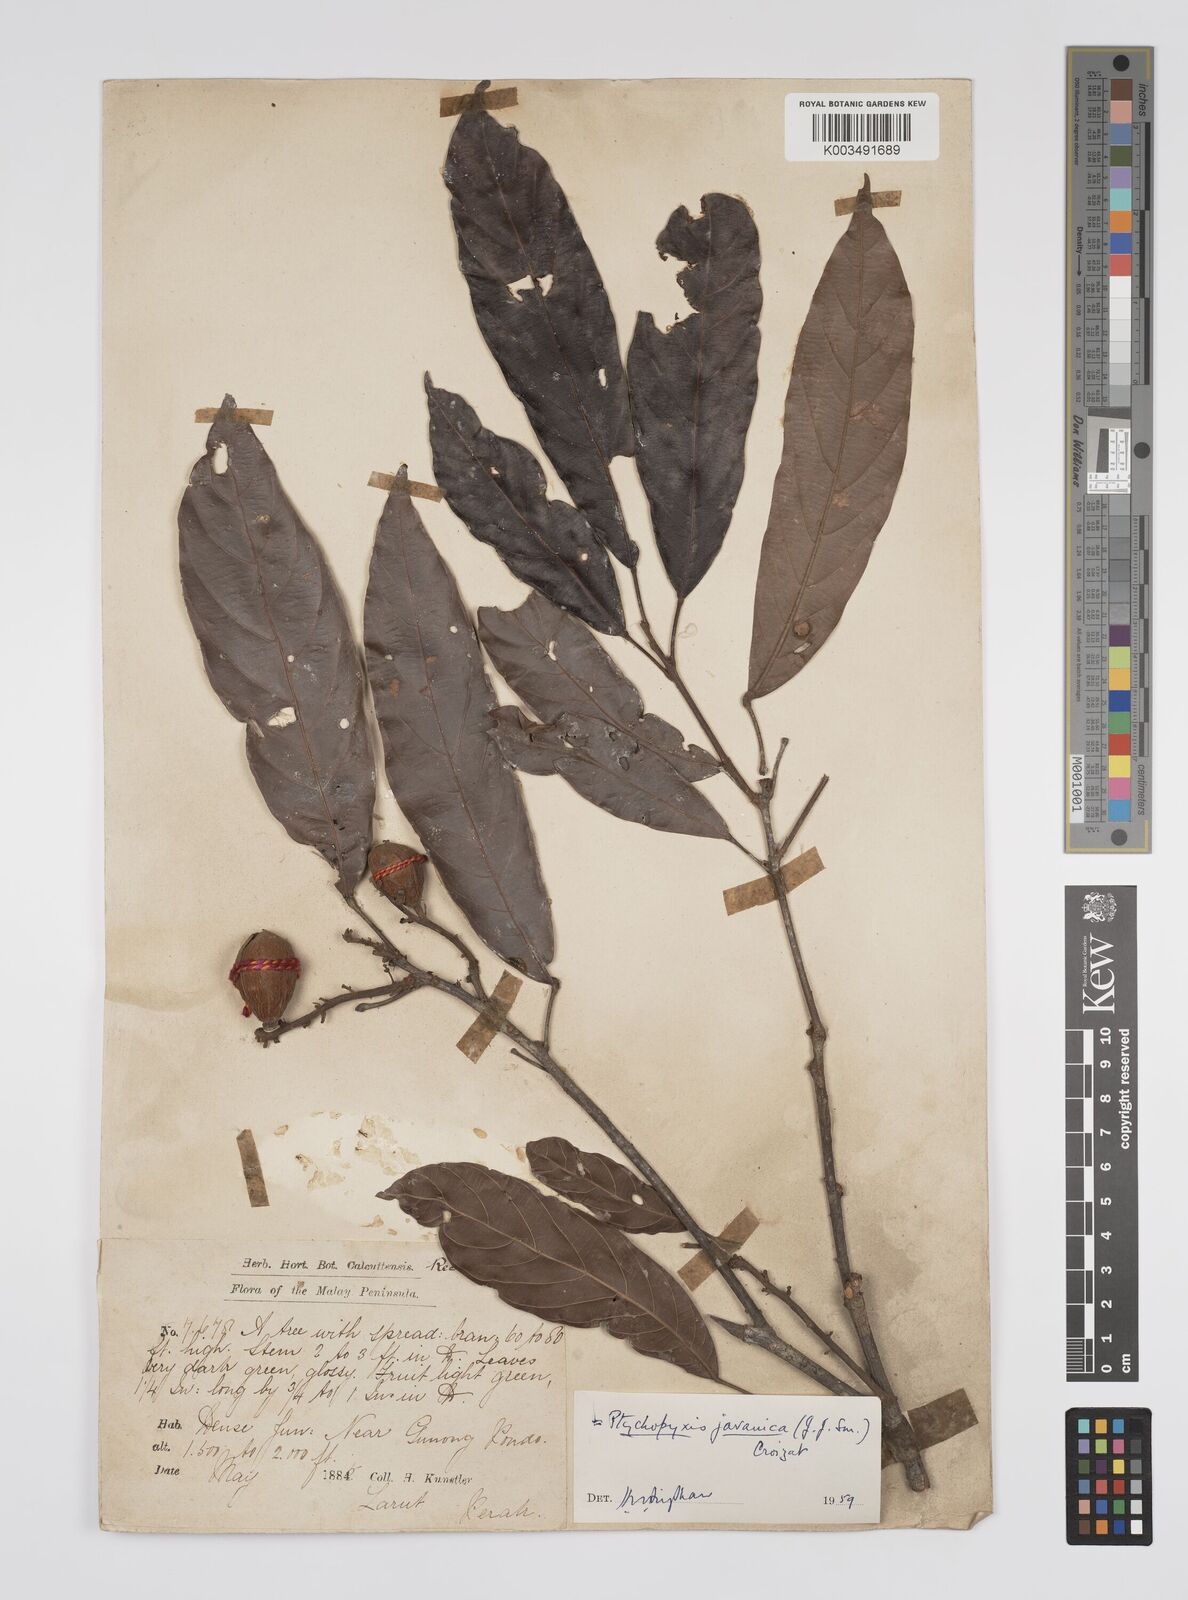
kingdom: Plantae
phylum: Tracheophyta
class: Magnoliopsida
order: Malpighiales
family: Euphorbiaceae
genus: Ptychopyxis
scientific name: Ptychopyxis javanica
